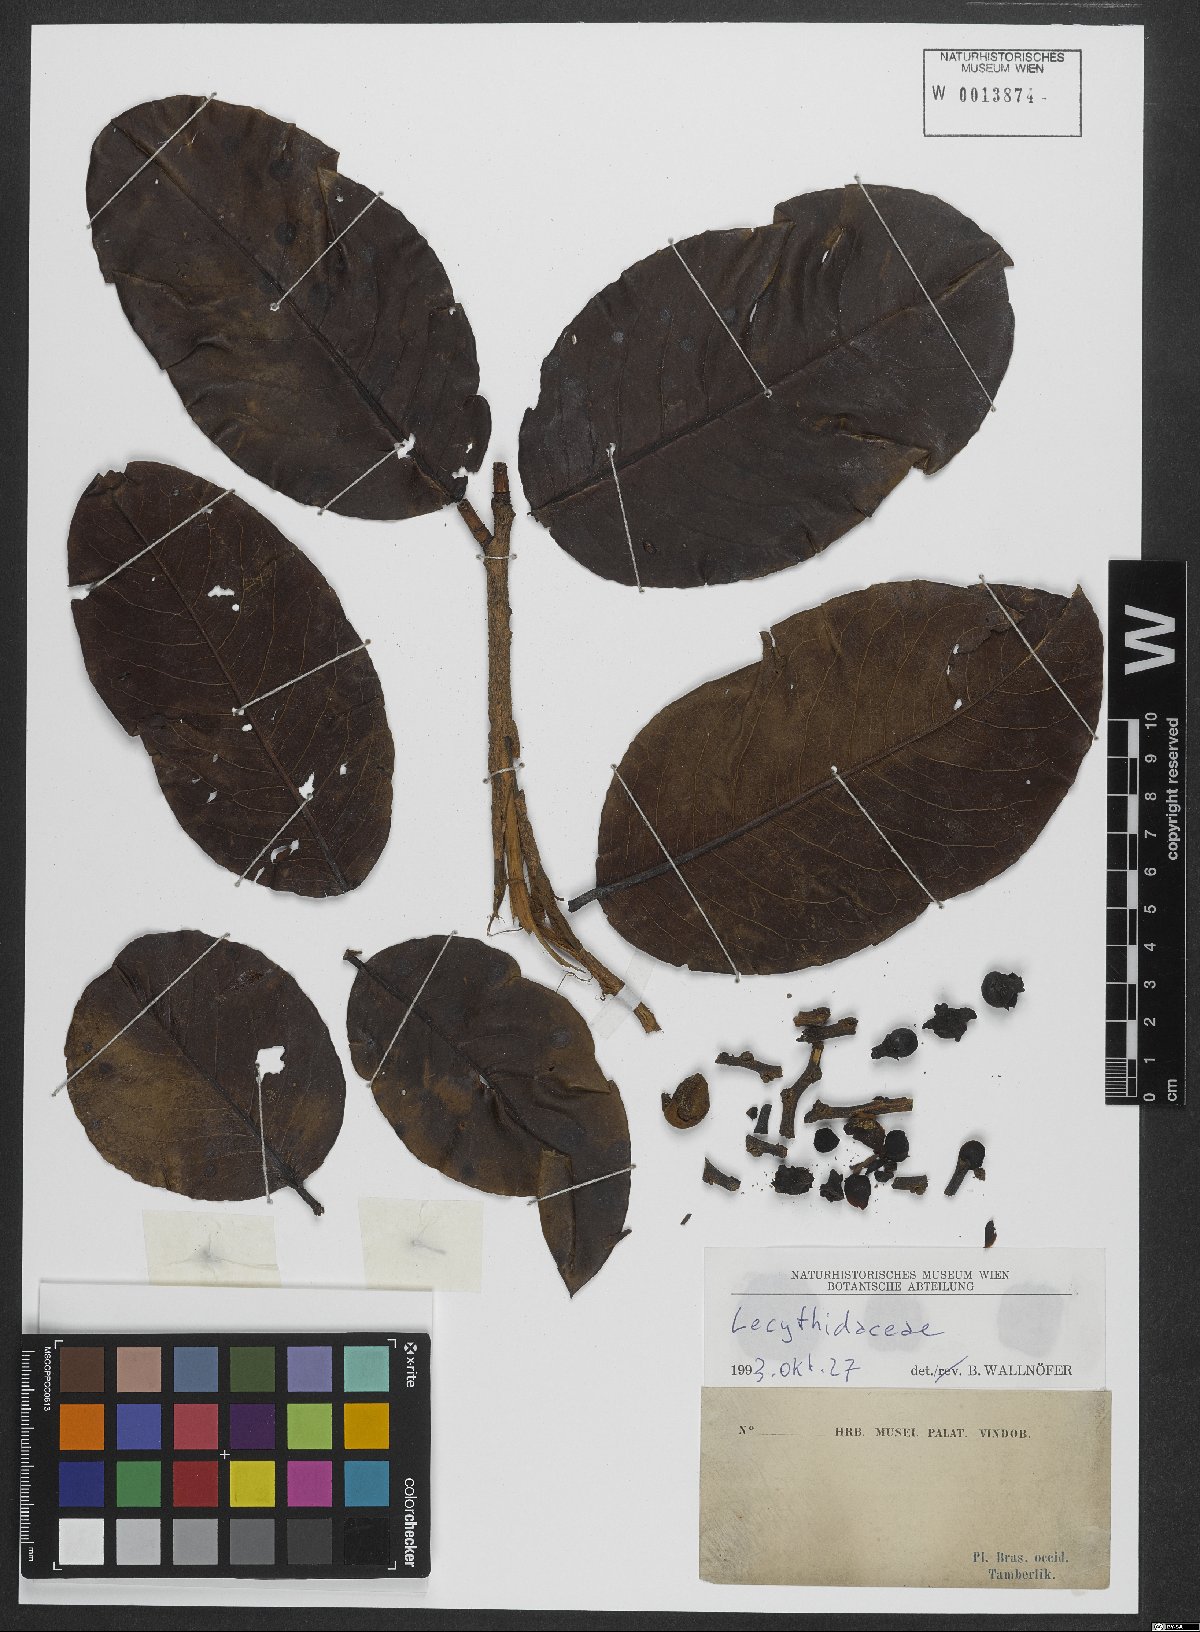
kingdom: Plantae
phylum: Tracheophyta
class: Magnoliopsida
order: Ericales
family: Lecythidaceae
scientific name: Lecythidaceae
